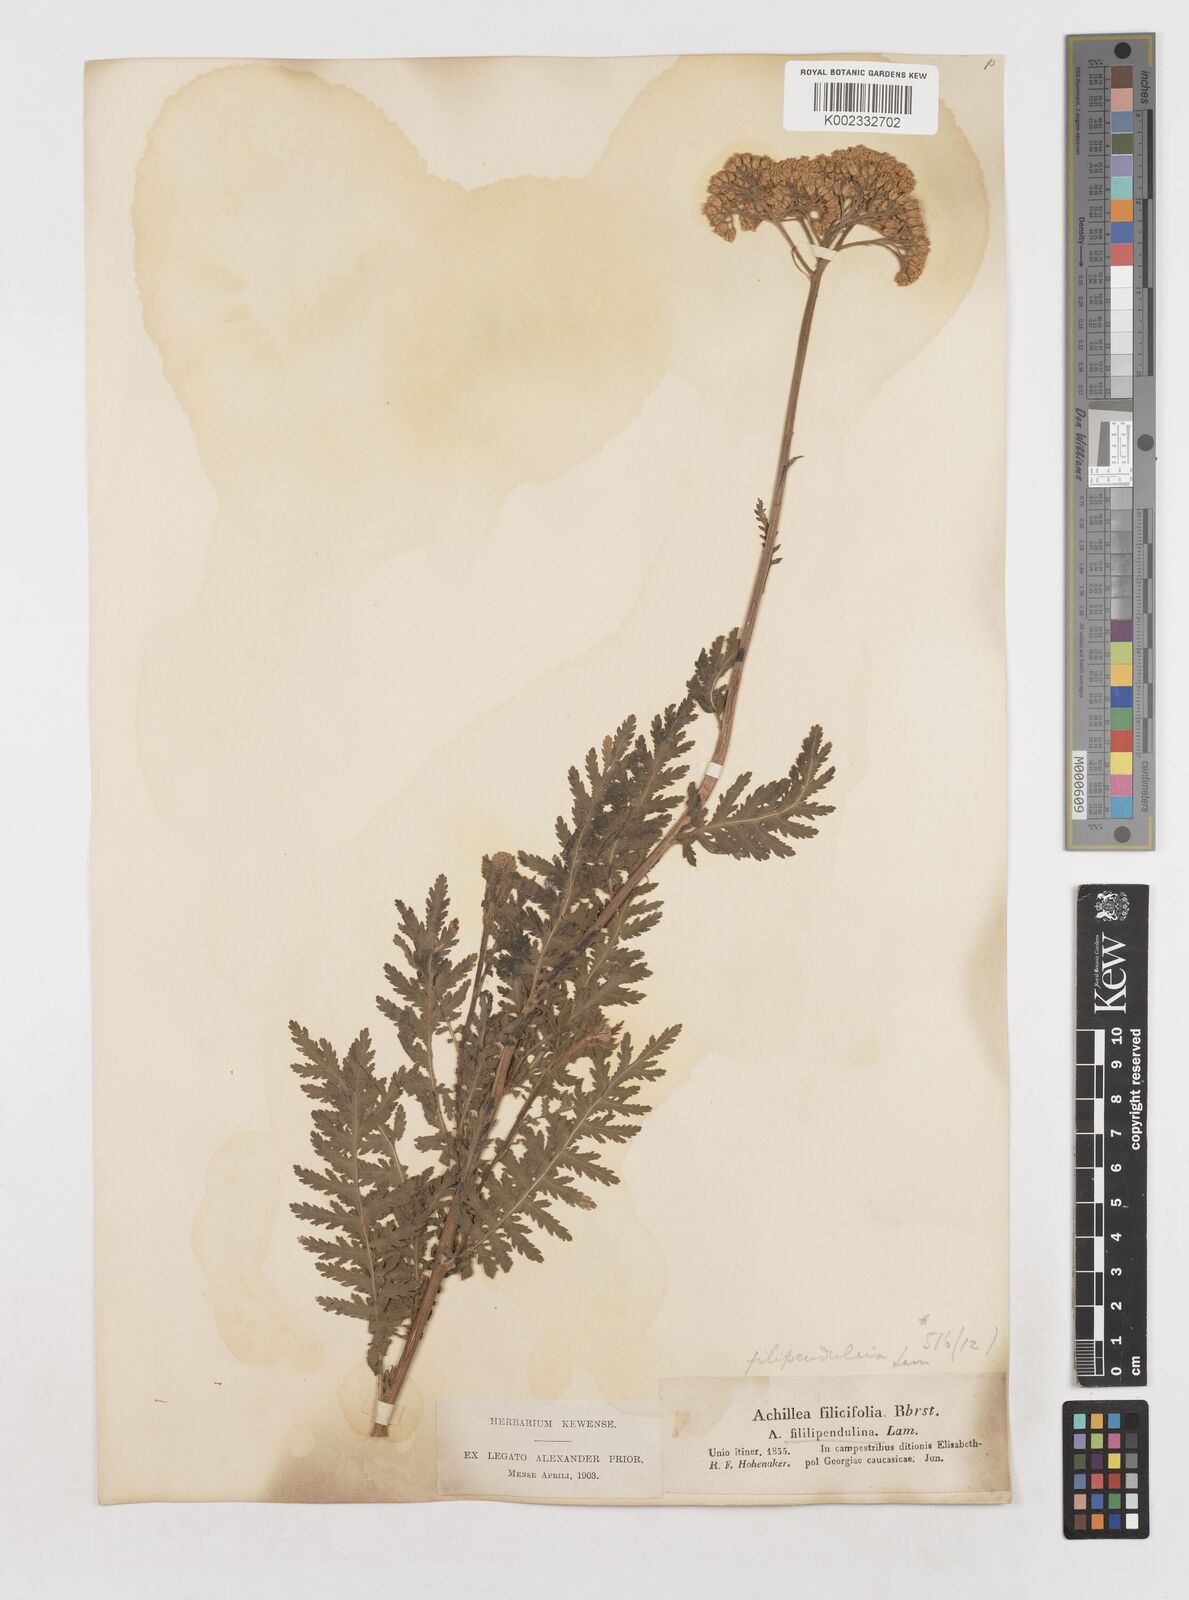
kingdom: Plantae
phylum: Tracheophyta
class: Magnoliopsida
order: Asterales
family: Asteraceae
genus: Achillea
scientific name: Achillea filipendulina
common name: Fernleaf yarrow
